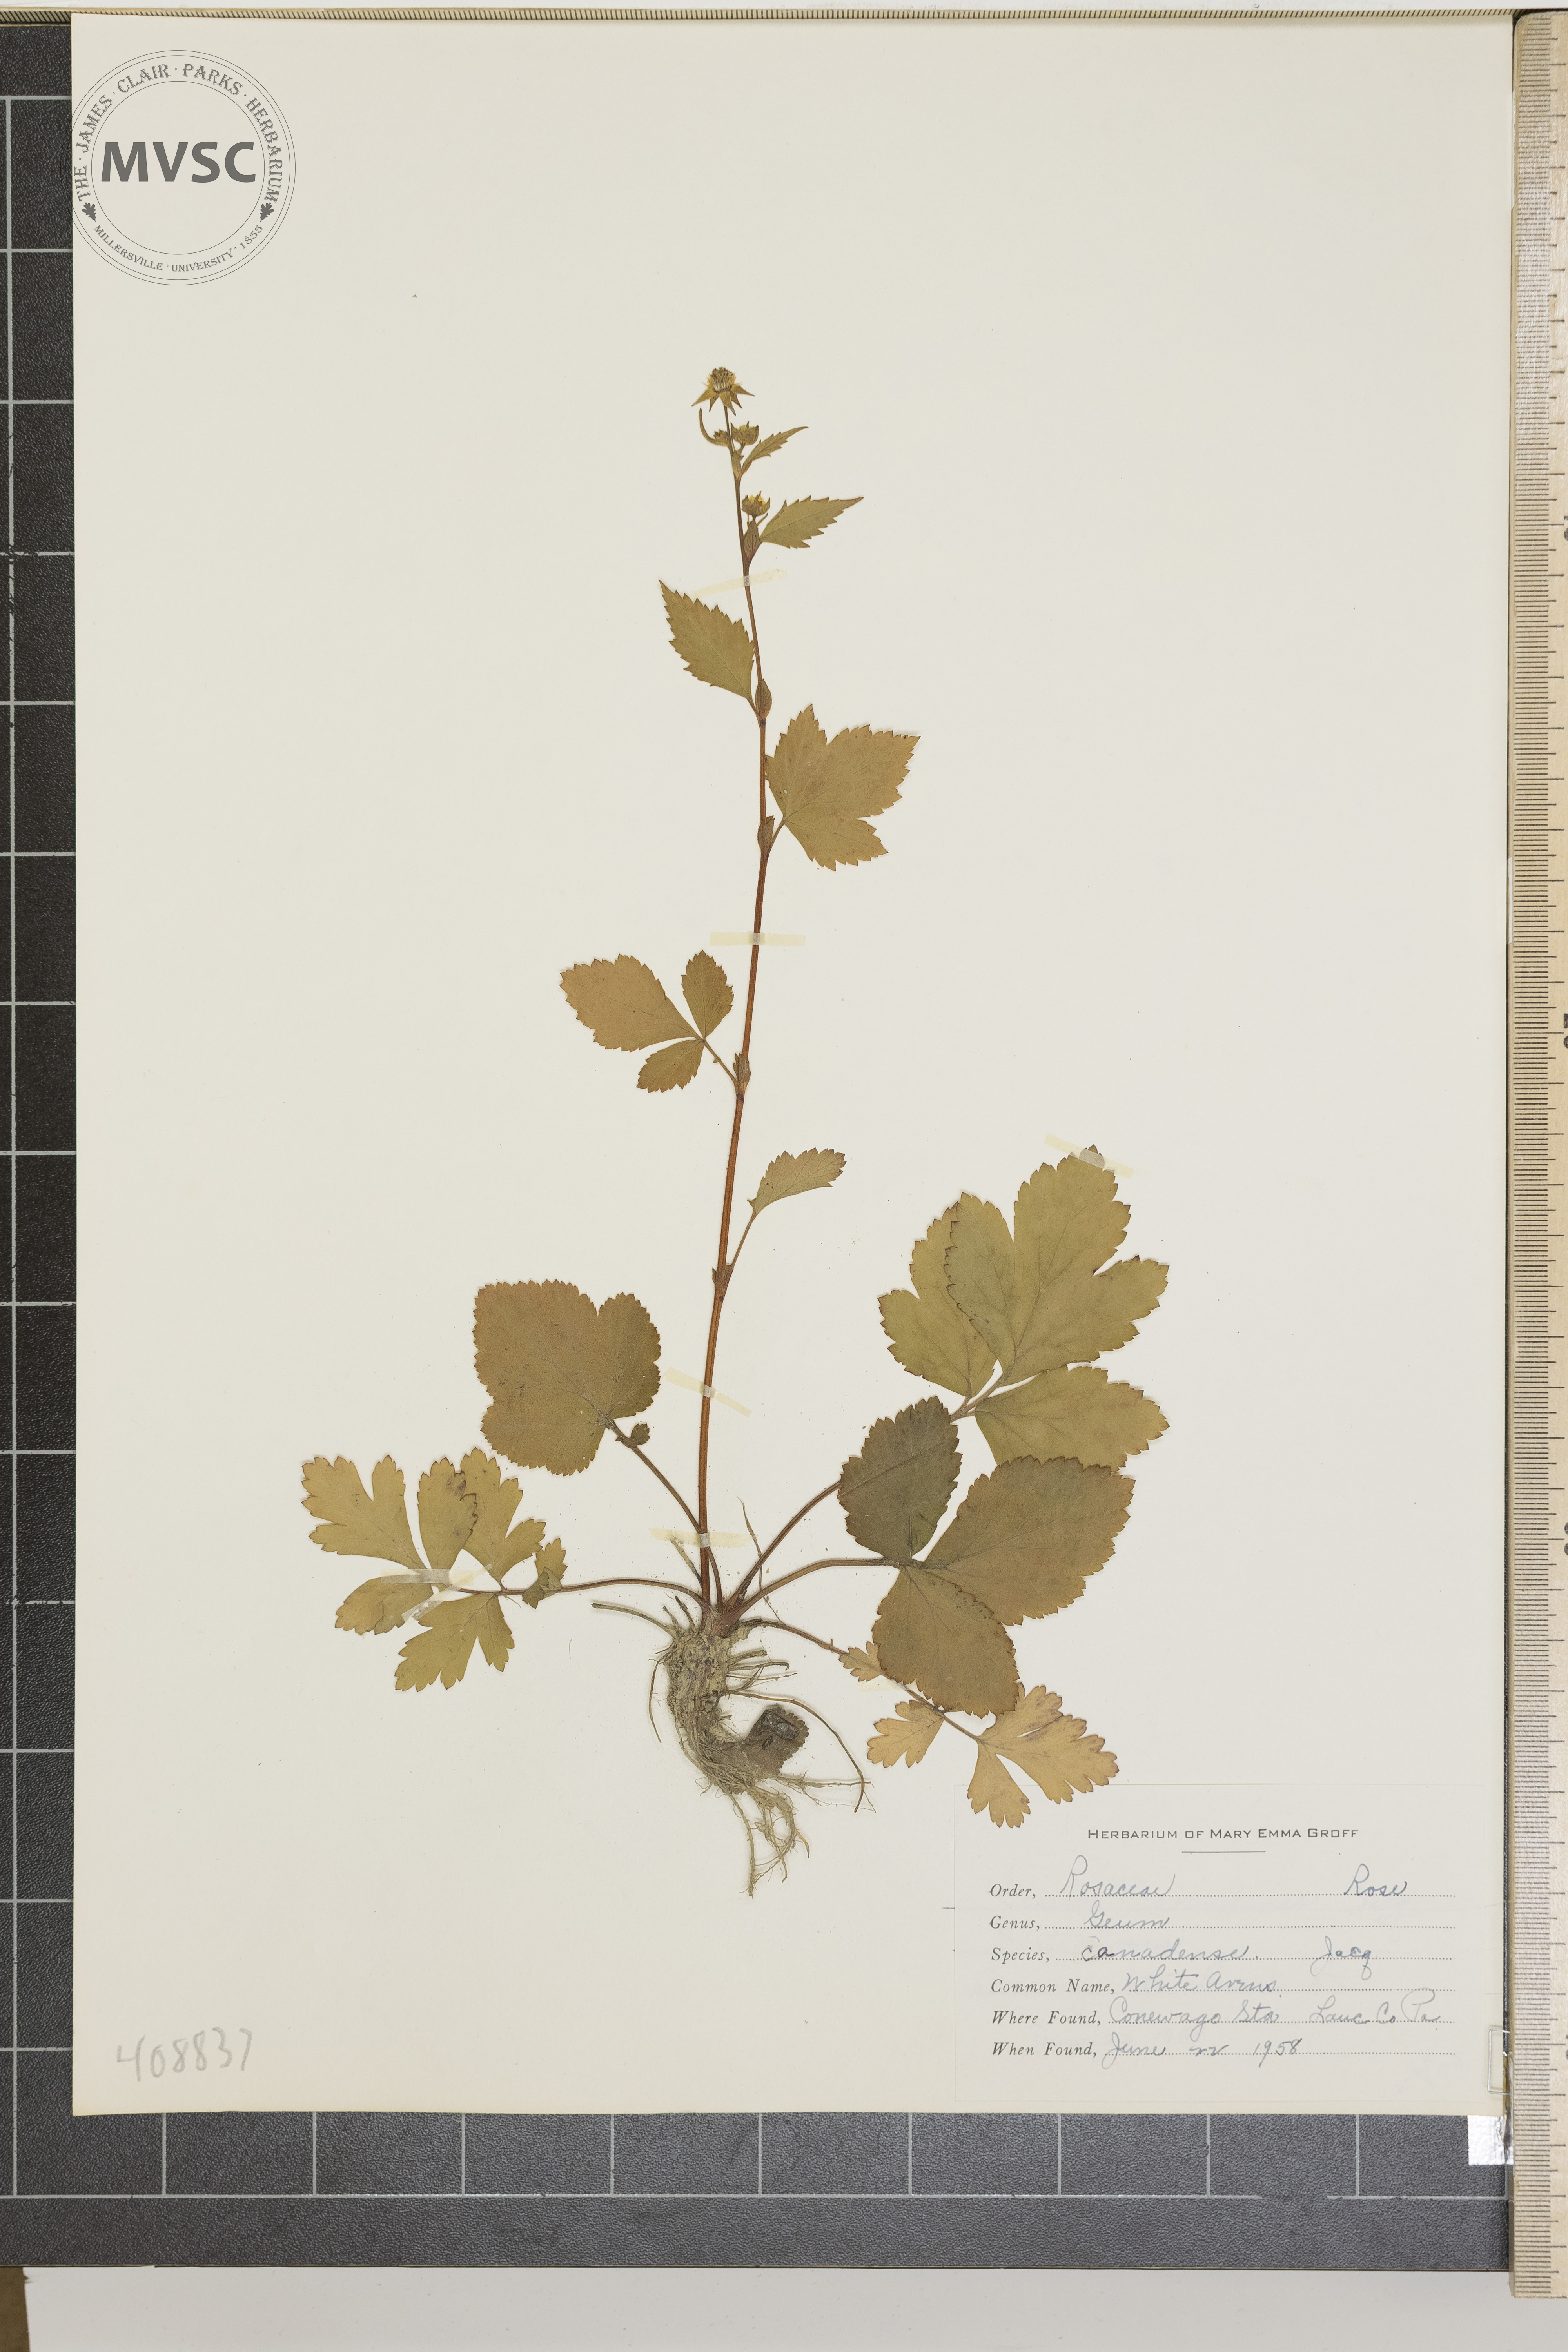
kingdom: Plantae
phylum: Tracheophyta
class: Magnoliopsida
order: Rosales
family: Rosaceae
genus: Geum
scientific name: Geum canadense
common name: White Avens
